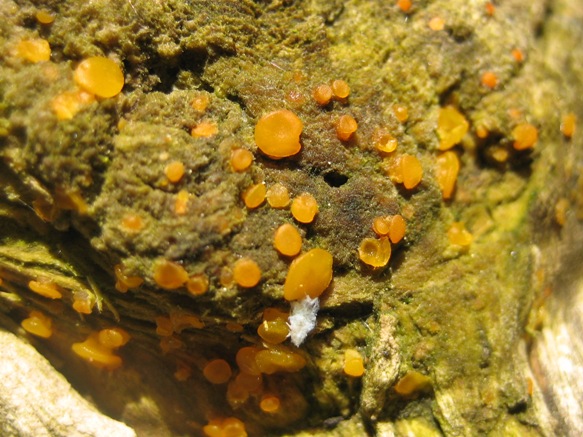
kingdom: Fungi
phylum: Basidiomycota
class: Dacrymycetes
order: Dacrymycetales
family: Dacrymycetaceae
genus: Dacrymyces
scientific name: Dacrymyces stillatus
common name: almindelig tåresvamp
